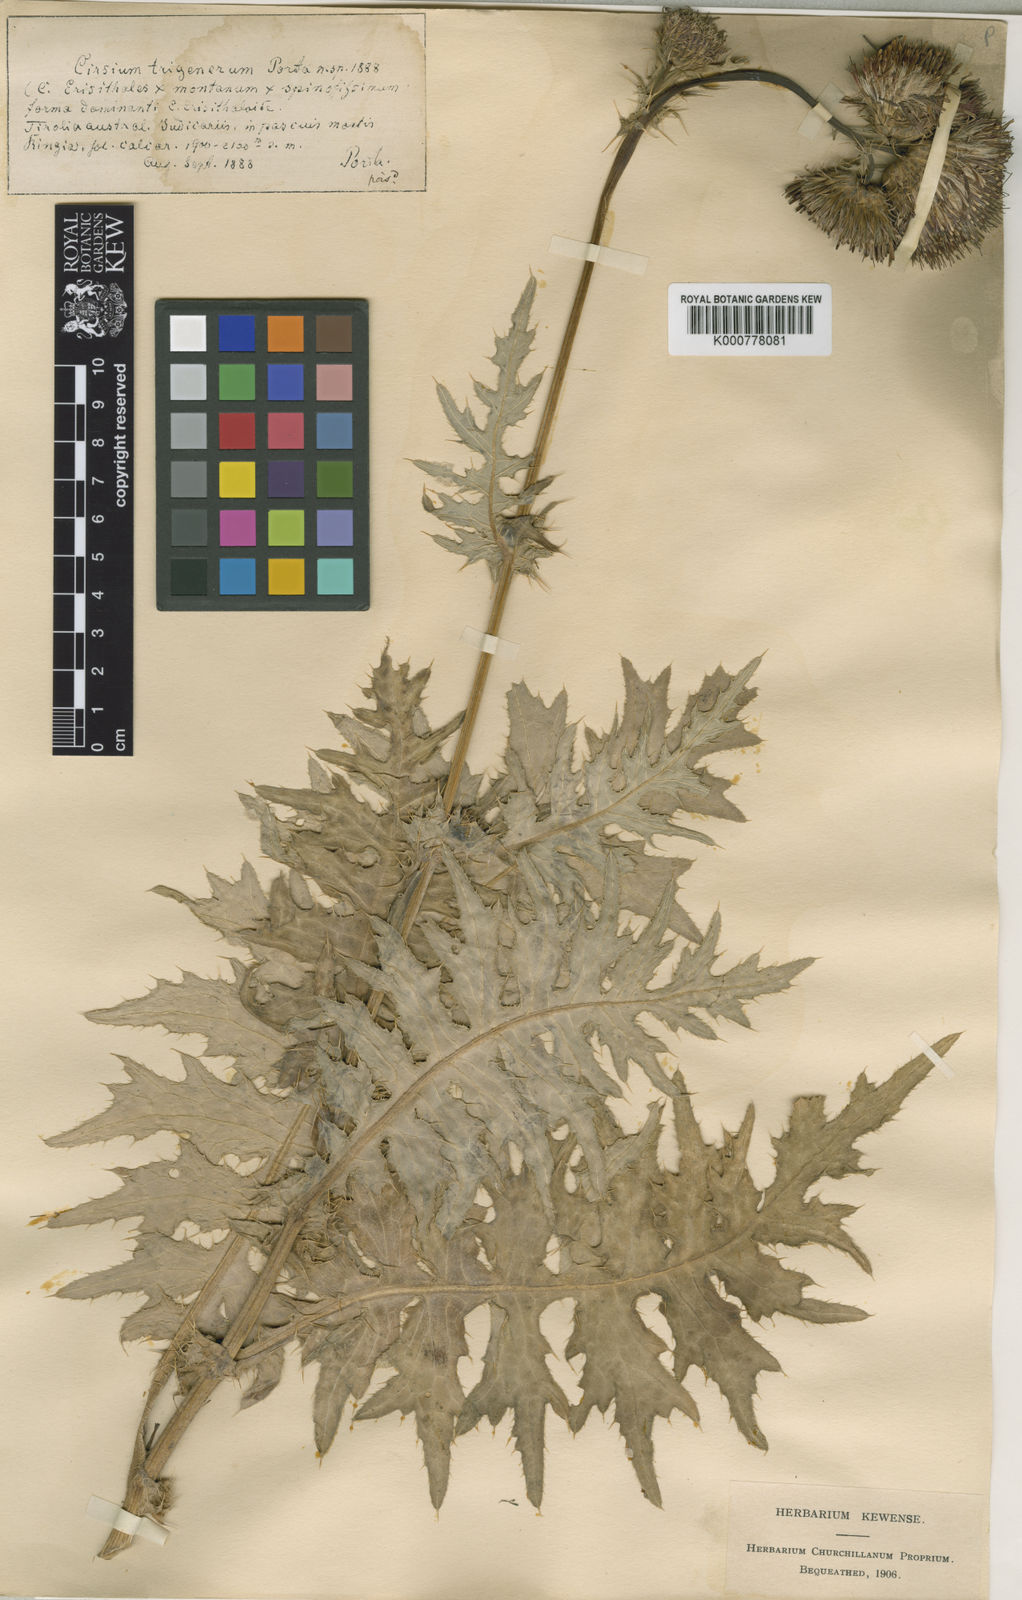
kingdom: Plantae
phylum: Tracheophyta
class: Magnoliopsida
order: Asterales
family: Asteraceae
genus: Cirsium
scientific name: Cirsium erisithales
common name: Yellow thistle
